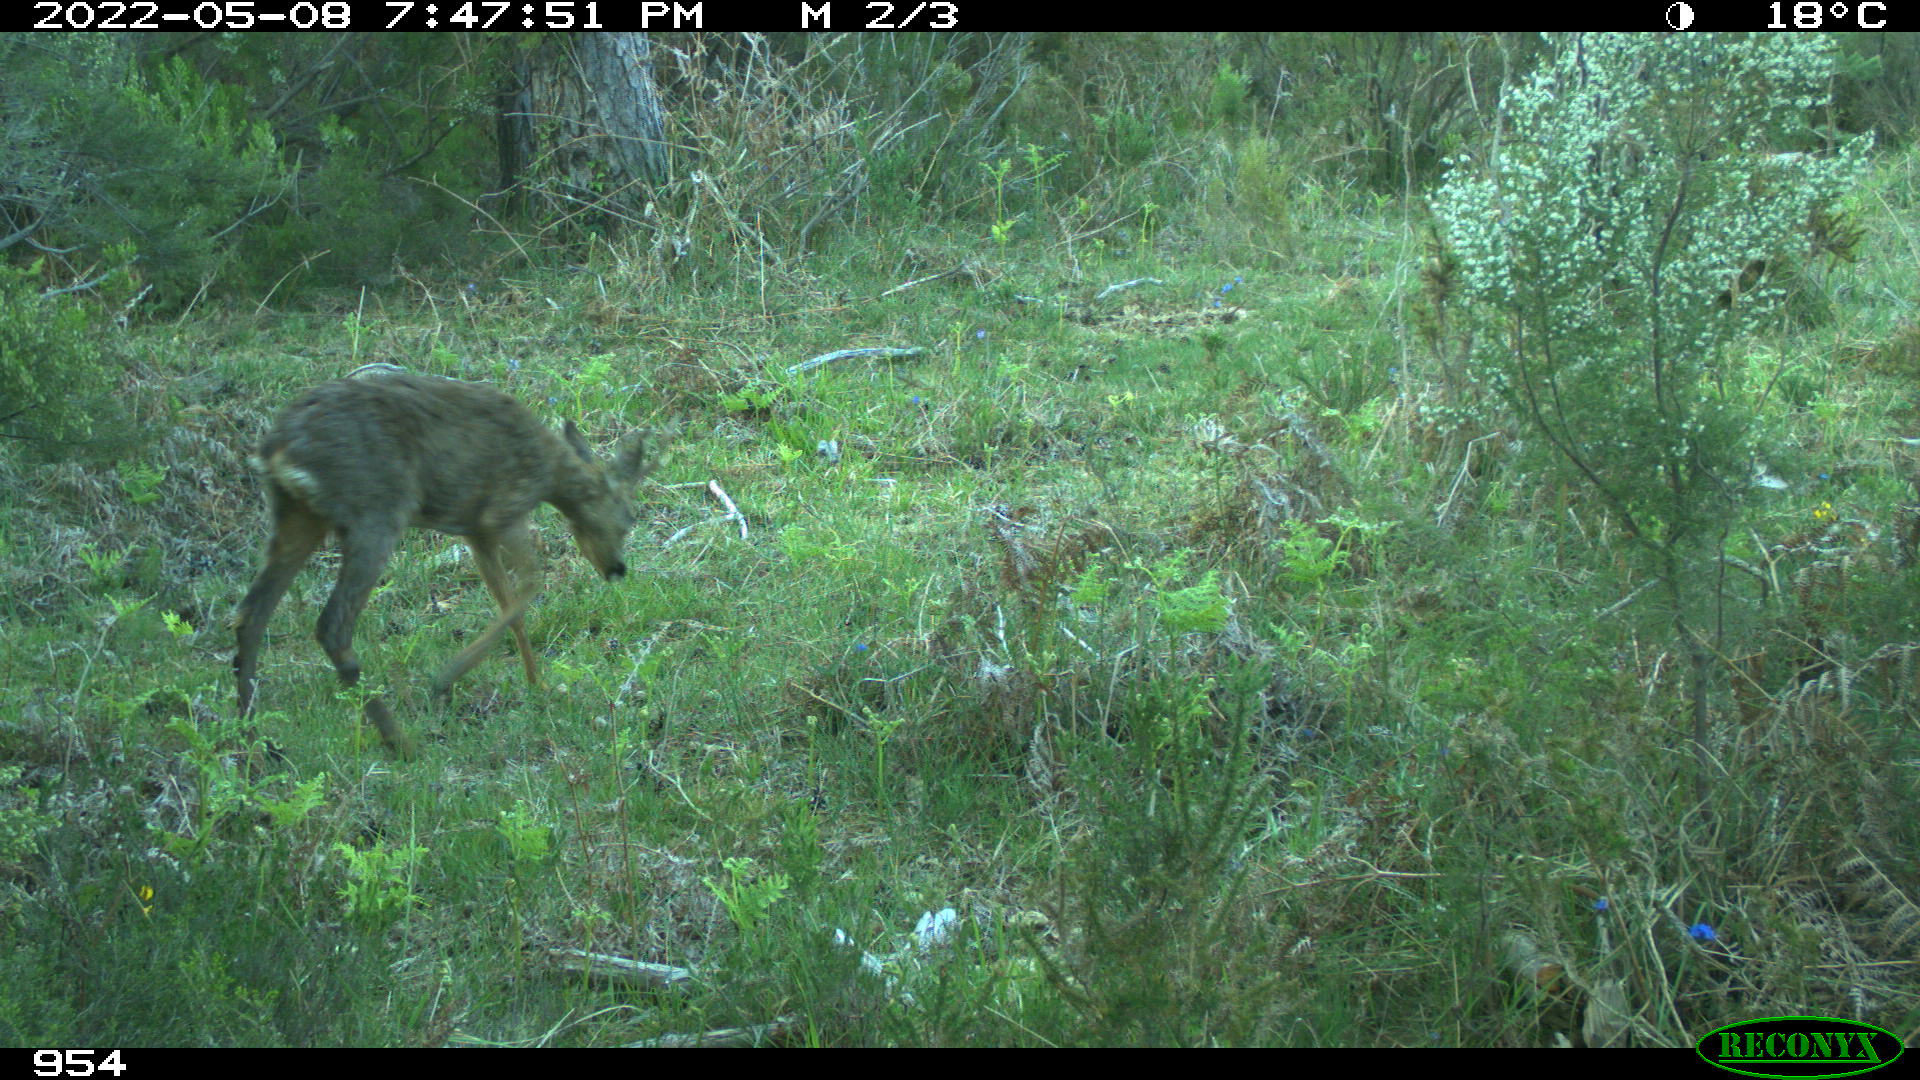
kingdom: Animalia
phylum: Chordata
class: Mammalia
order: Artiodactyla
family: Cervidae
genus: Capreolus
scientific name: Capreolus capreolus
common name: Western roe deer
